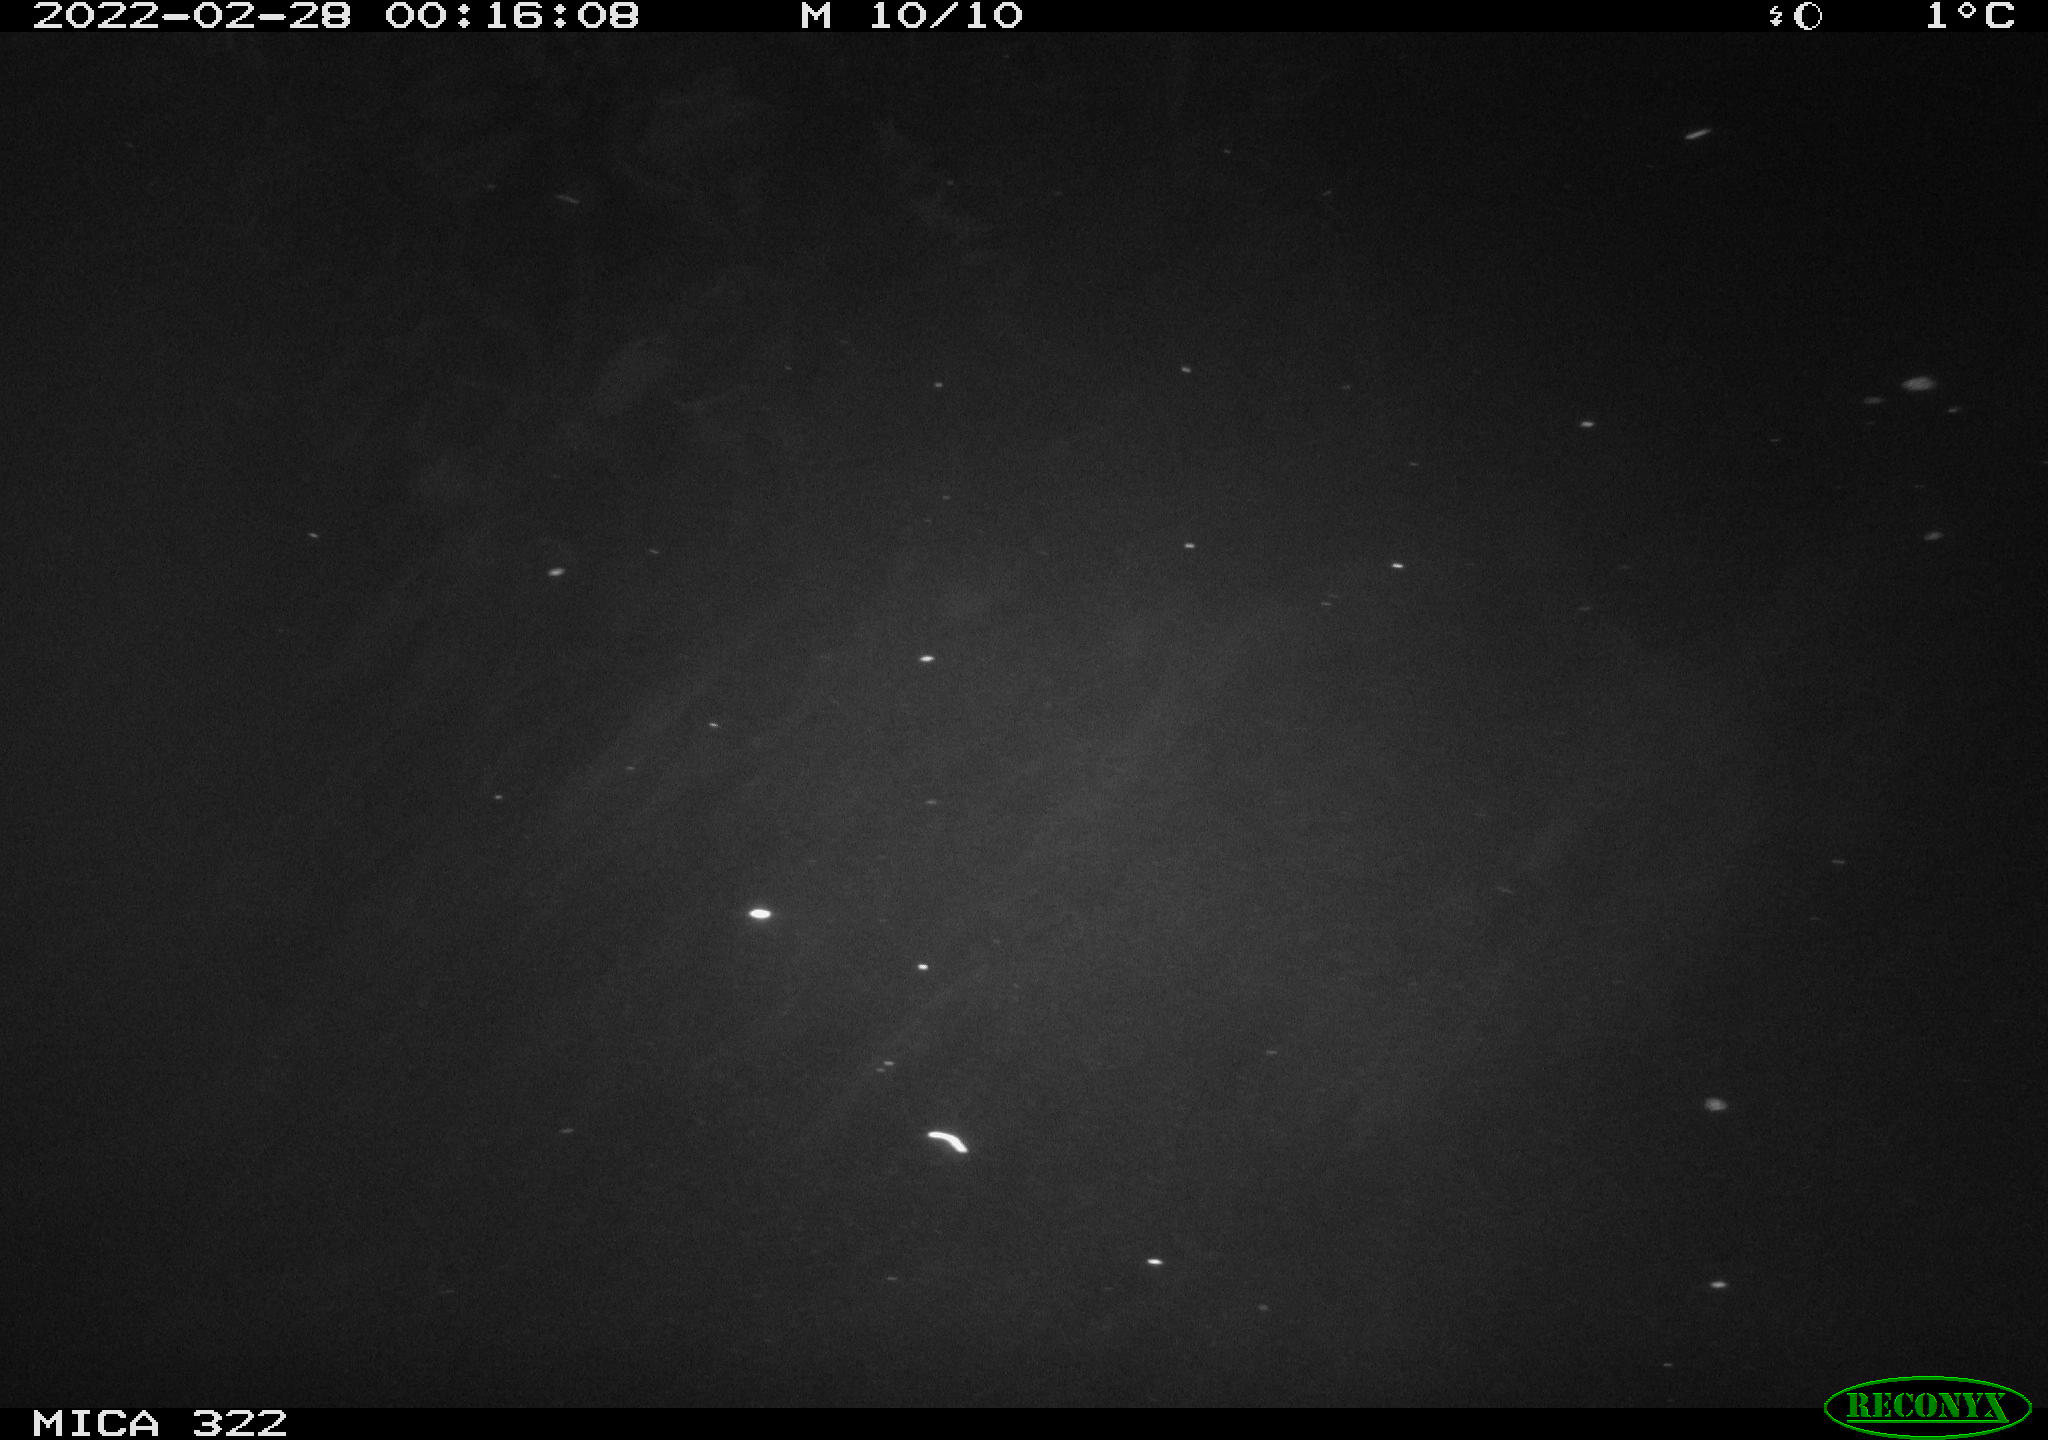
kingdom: Animalia
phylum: Chordata
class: Aves
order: Anseriformes
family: Anatidae
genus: Mareca
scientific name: Mareca strepera
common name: Gadwall
